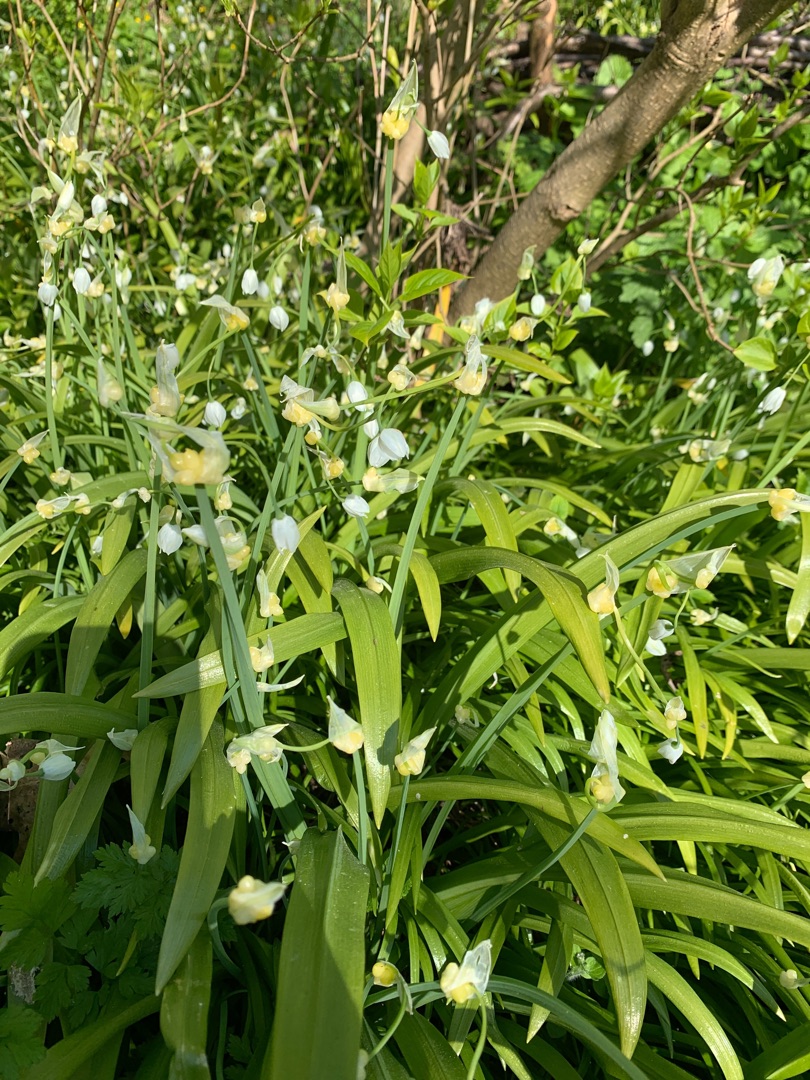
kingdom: Plantae
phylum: Tracheophyta
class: Liliopsida
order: Asparagales
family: Amaryllidaceae
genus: Allium
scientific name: Allium paradoxum
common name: Spøjs løg
